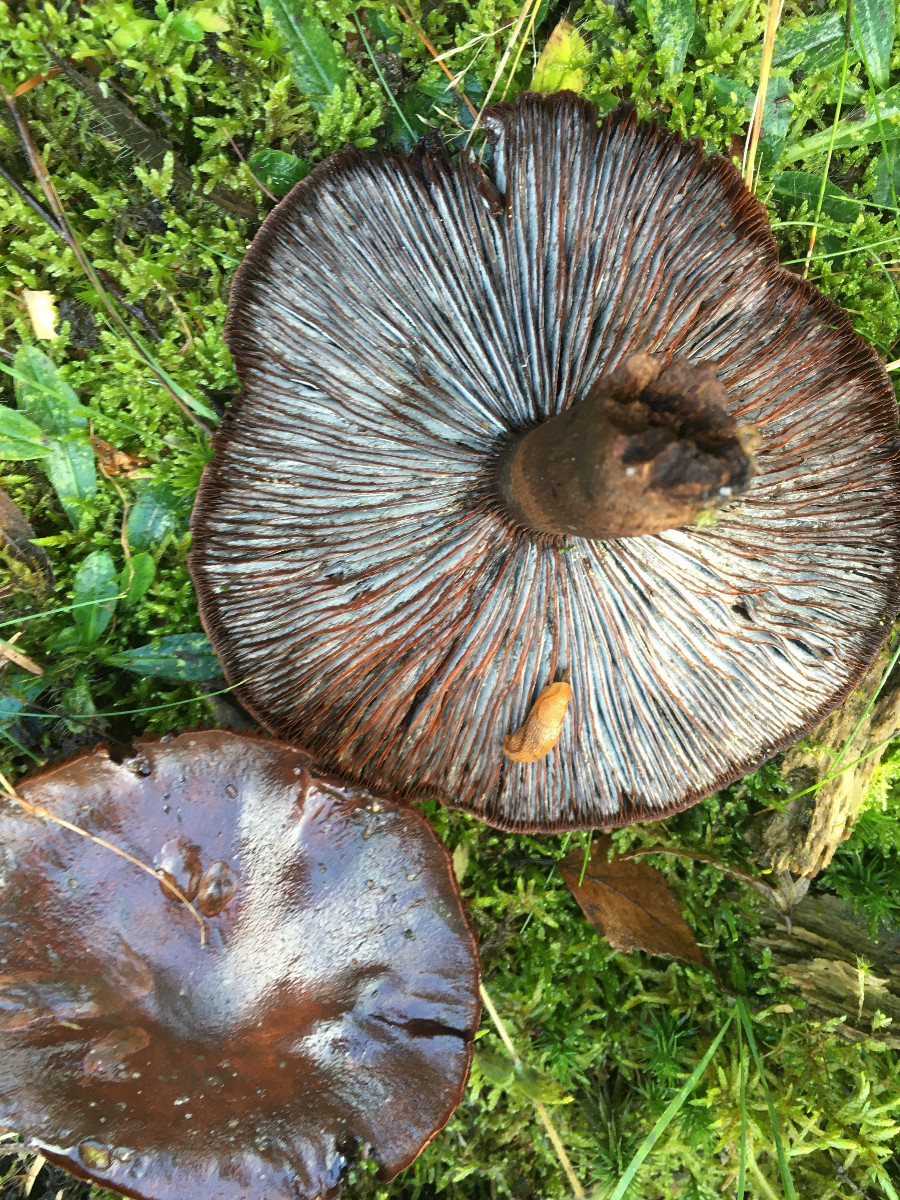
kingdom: Fungi
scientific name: Fungi
